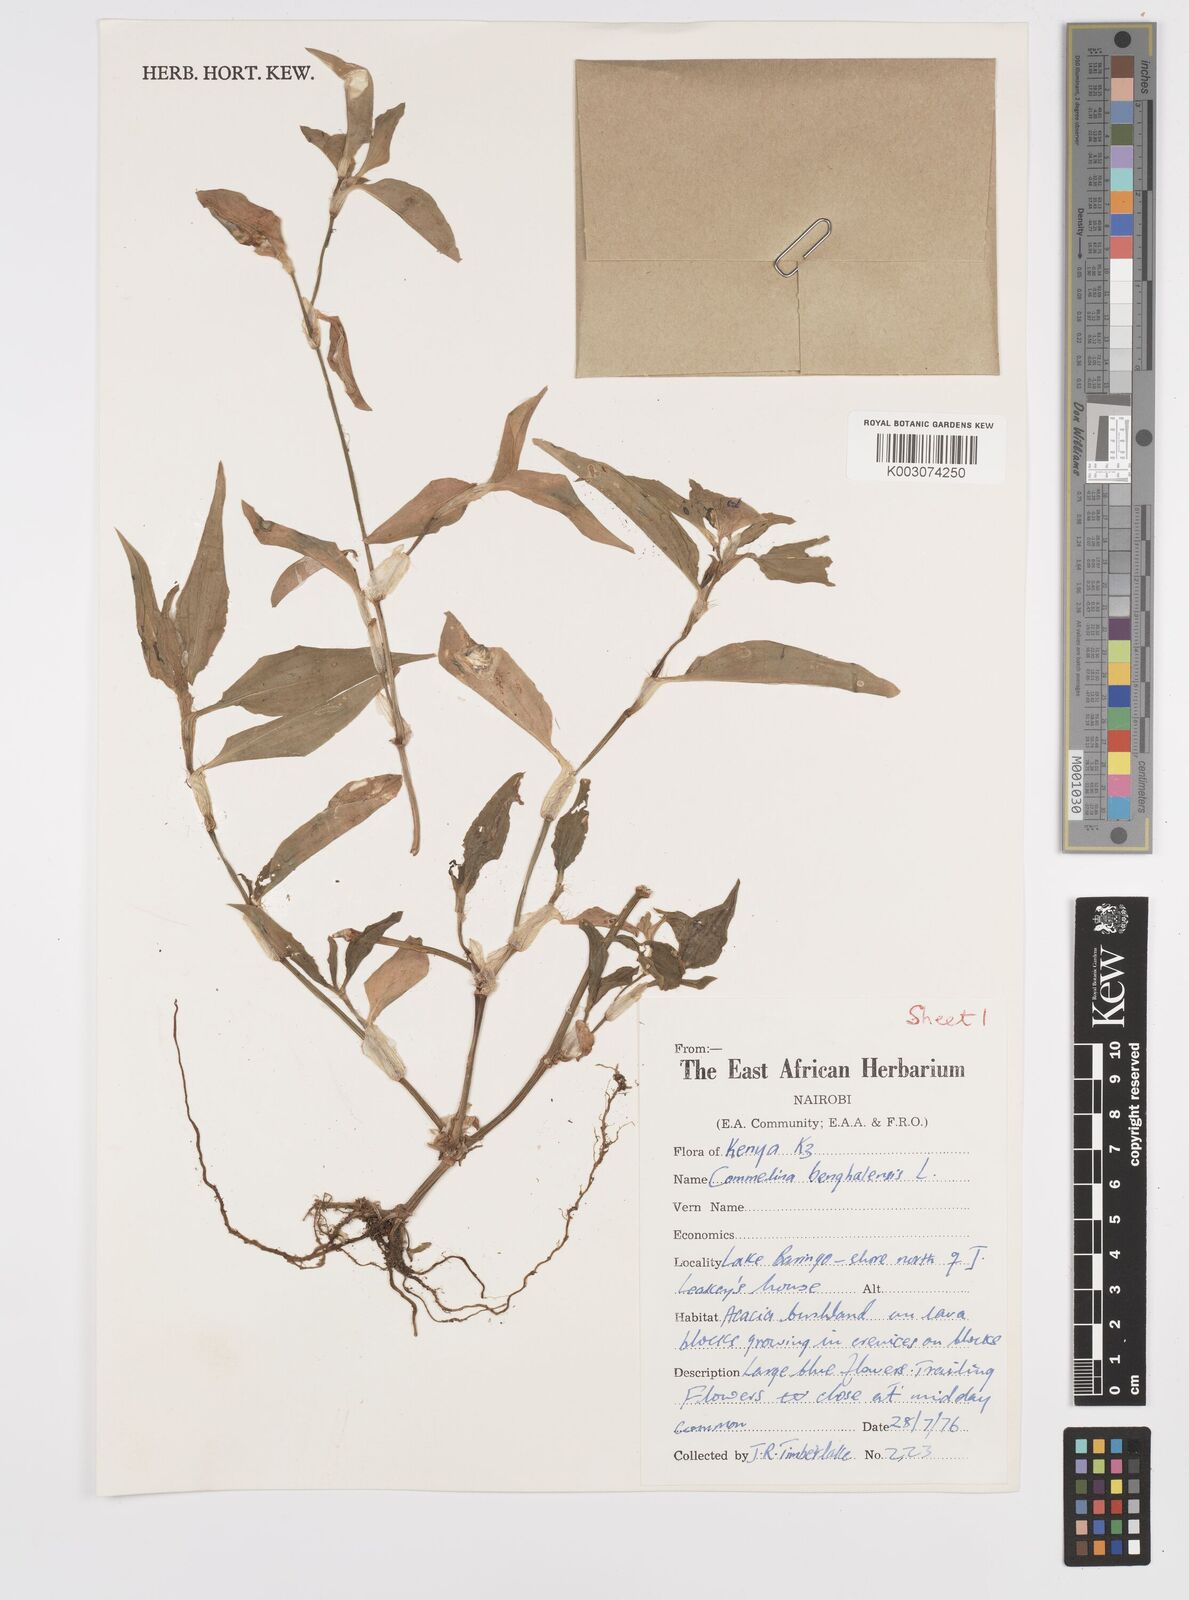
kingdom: Plantae
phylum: Tracheophyta
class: Liliopsida
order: Commelinales
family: Commelinaceae
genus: Commelina
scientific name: Commelina benghalensis
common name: Jio
